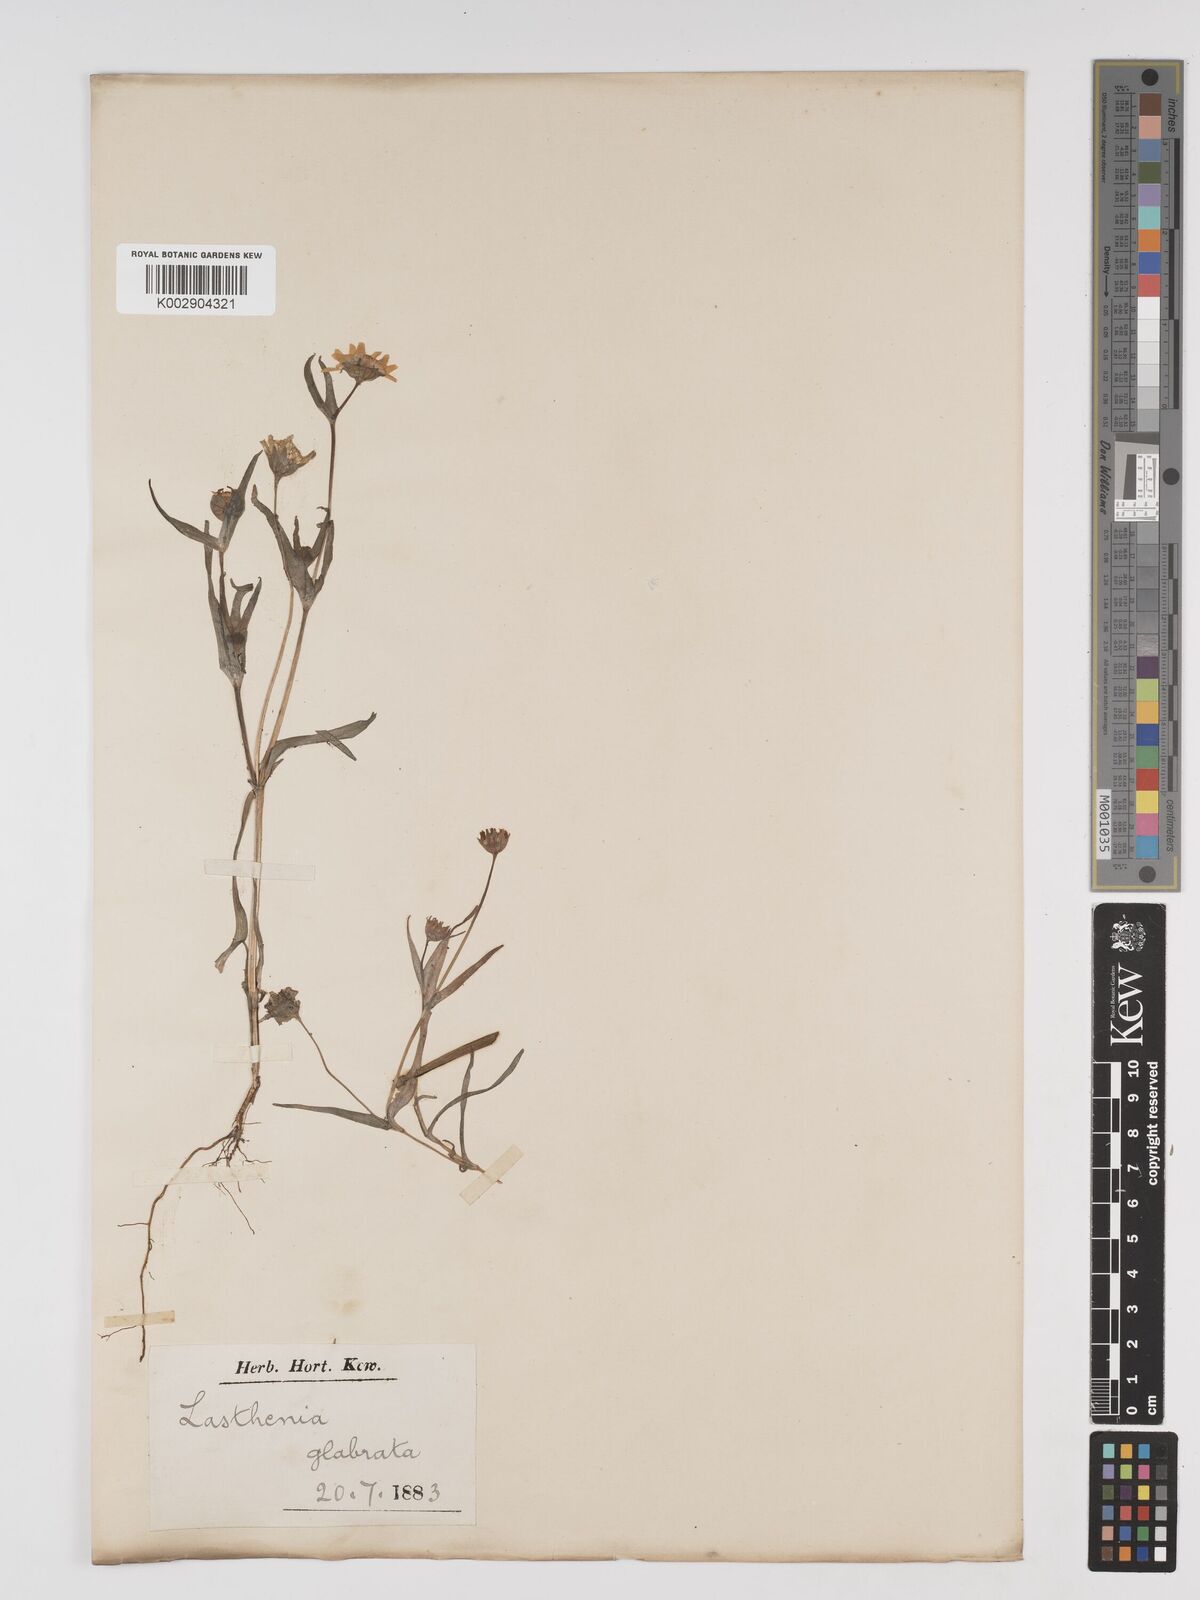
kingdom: Plantae
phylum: Tracheophyta
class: Magnoliopsida
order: Asterales
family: Asteraceae
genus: Lasthenia
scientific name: Lasthenia glabrata
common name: Yellow-ray lasthenia
